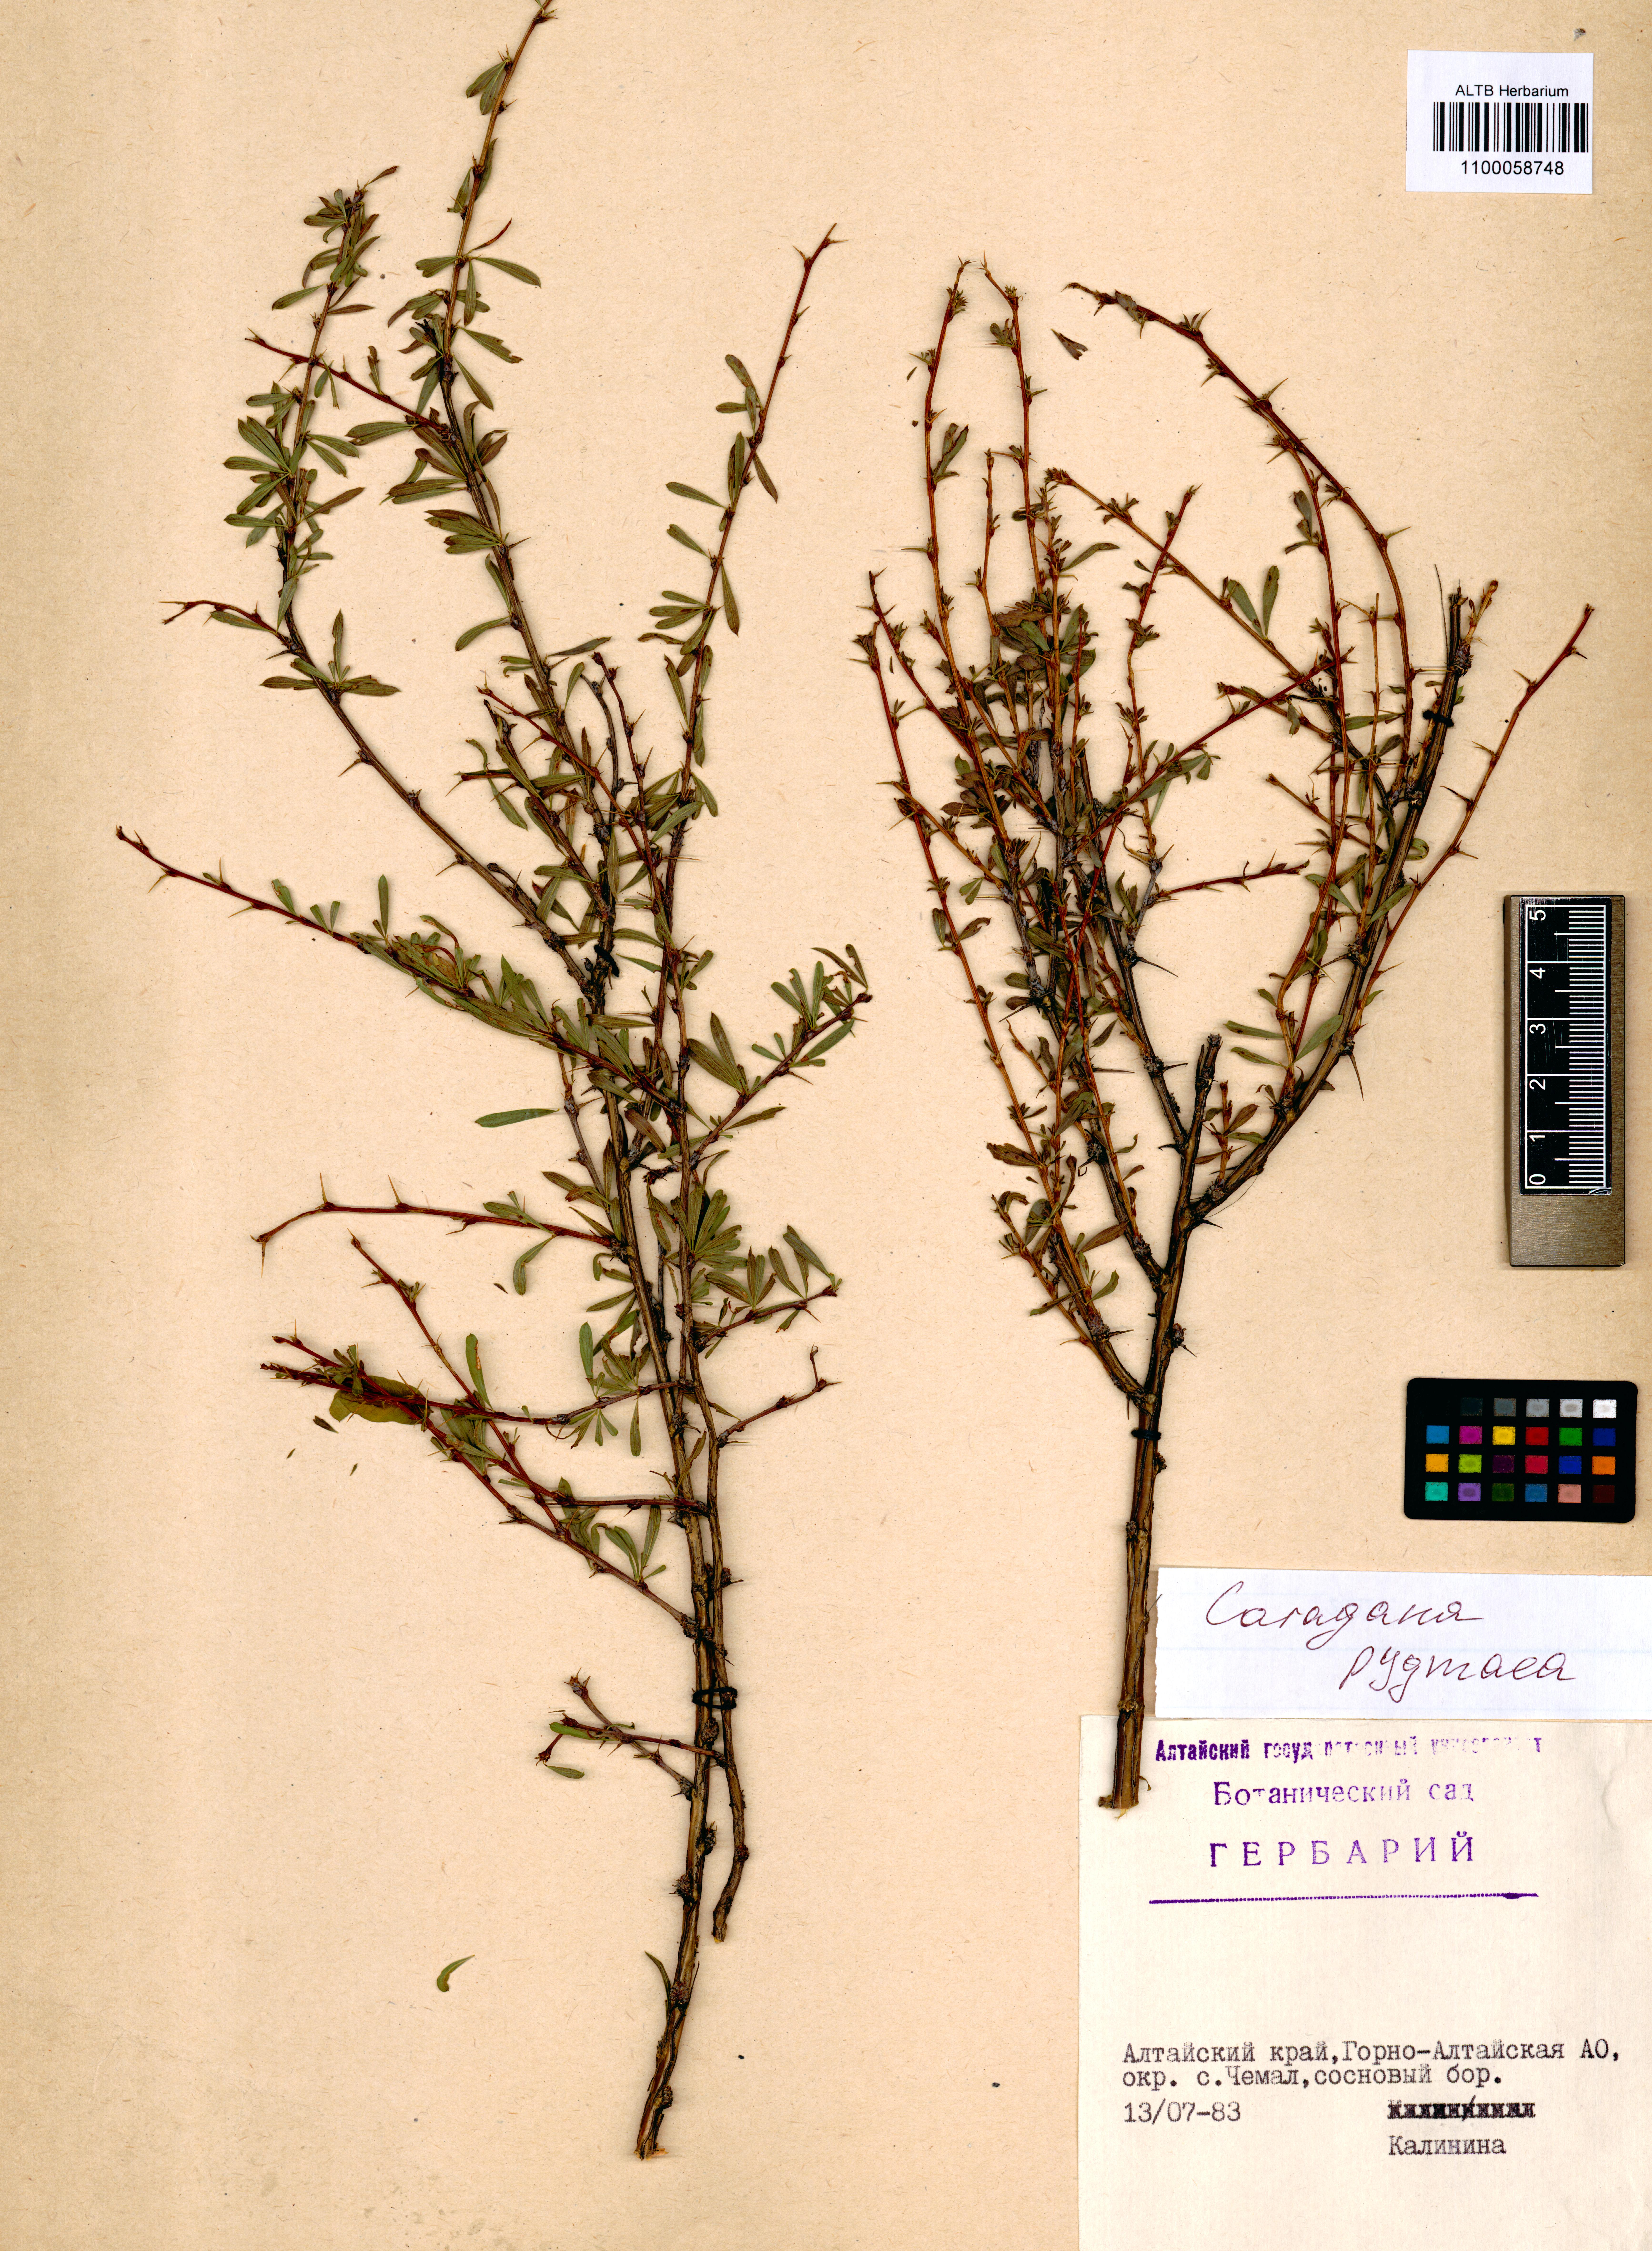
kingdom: Plantae
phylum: Tracheophyta
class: Magnoliopsida
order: Fabales
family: Fabaceae
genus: Caragana
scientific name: Caragana pygmaea
